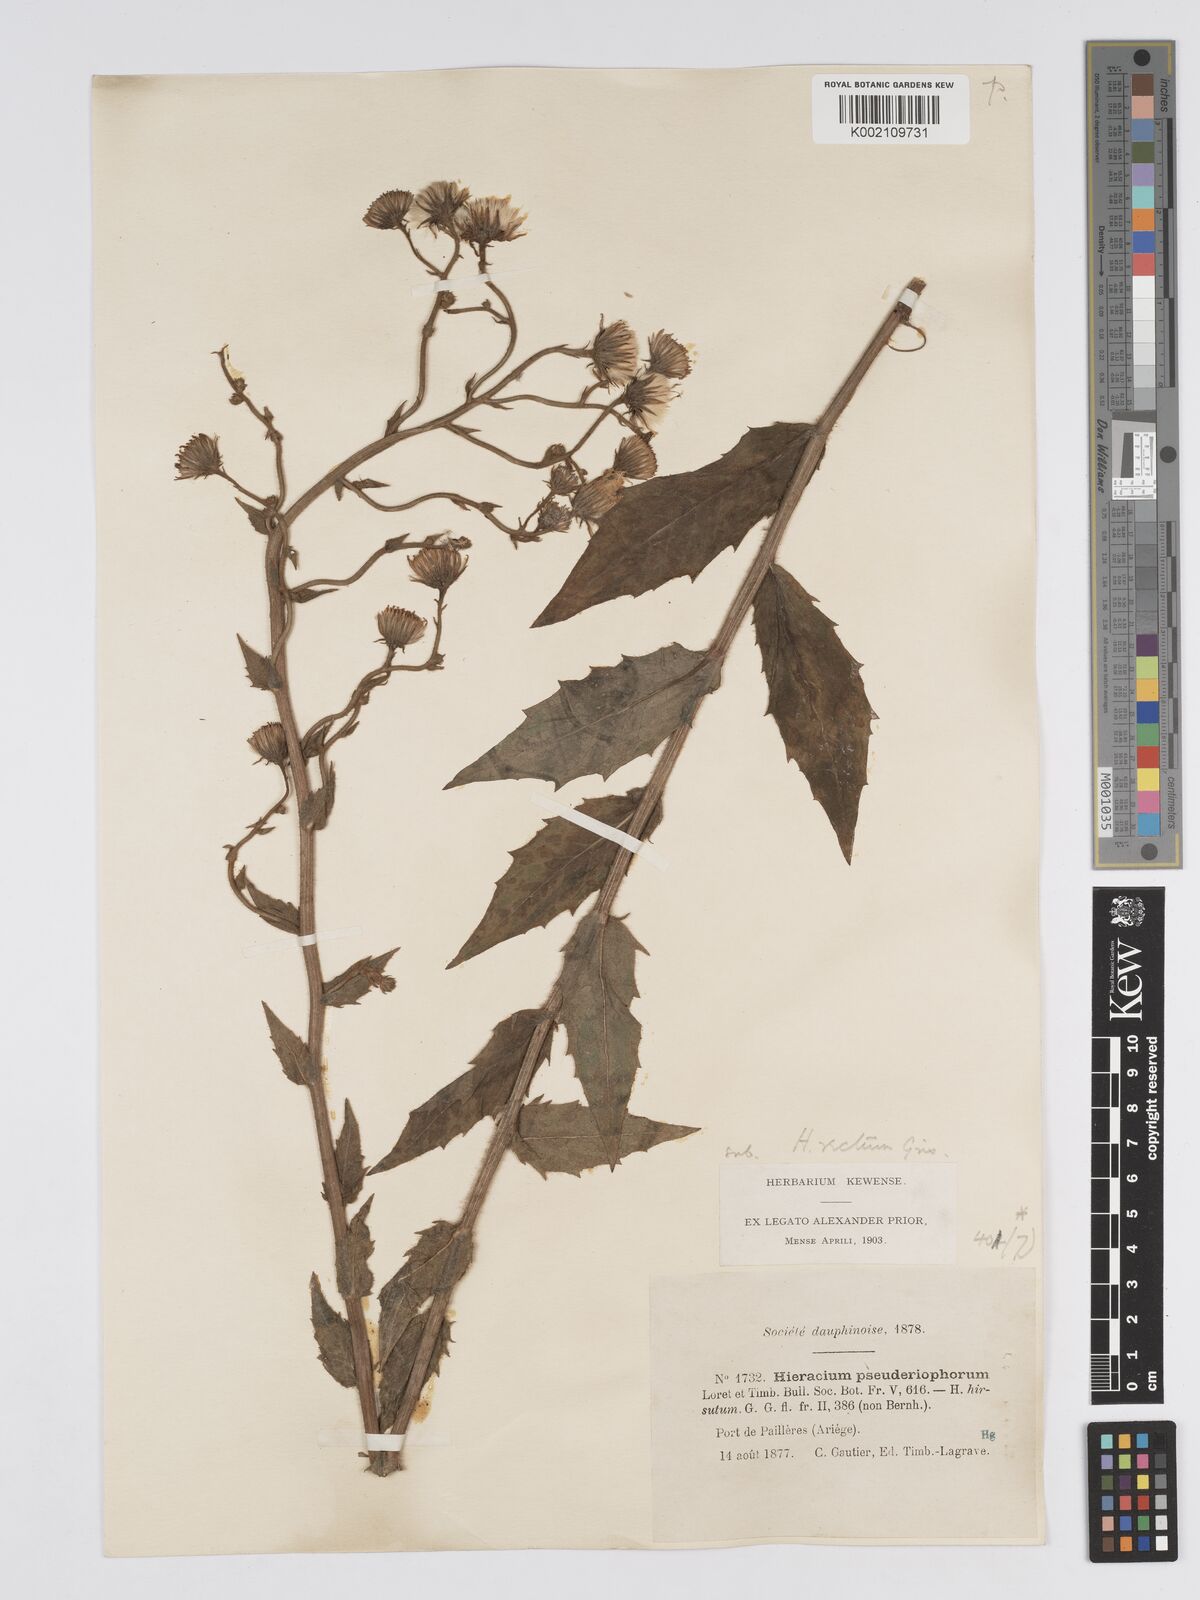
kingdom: Plantae
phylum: Tracheophyta
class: Magnoliopsida
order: Asterales
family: Asteraceae
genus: Hieracium
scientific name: Hieracium patens
